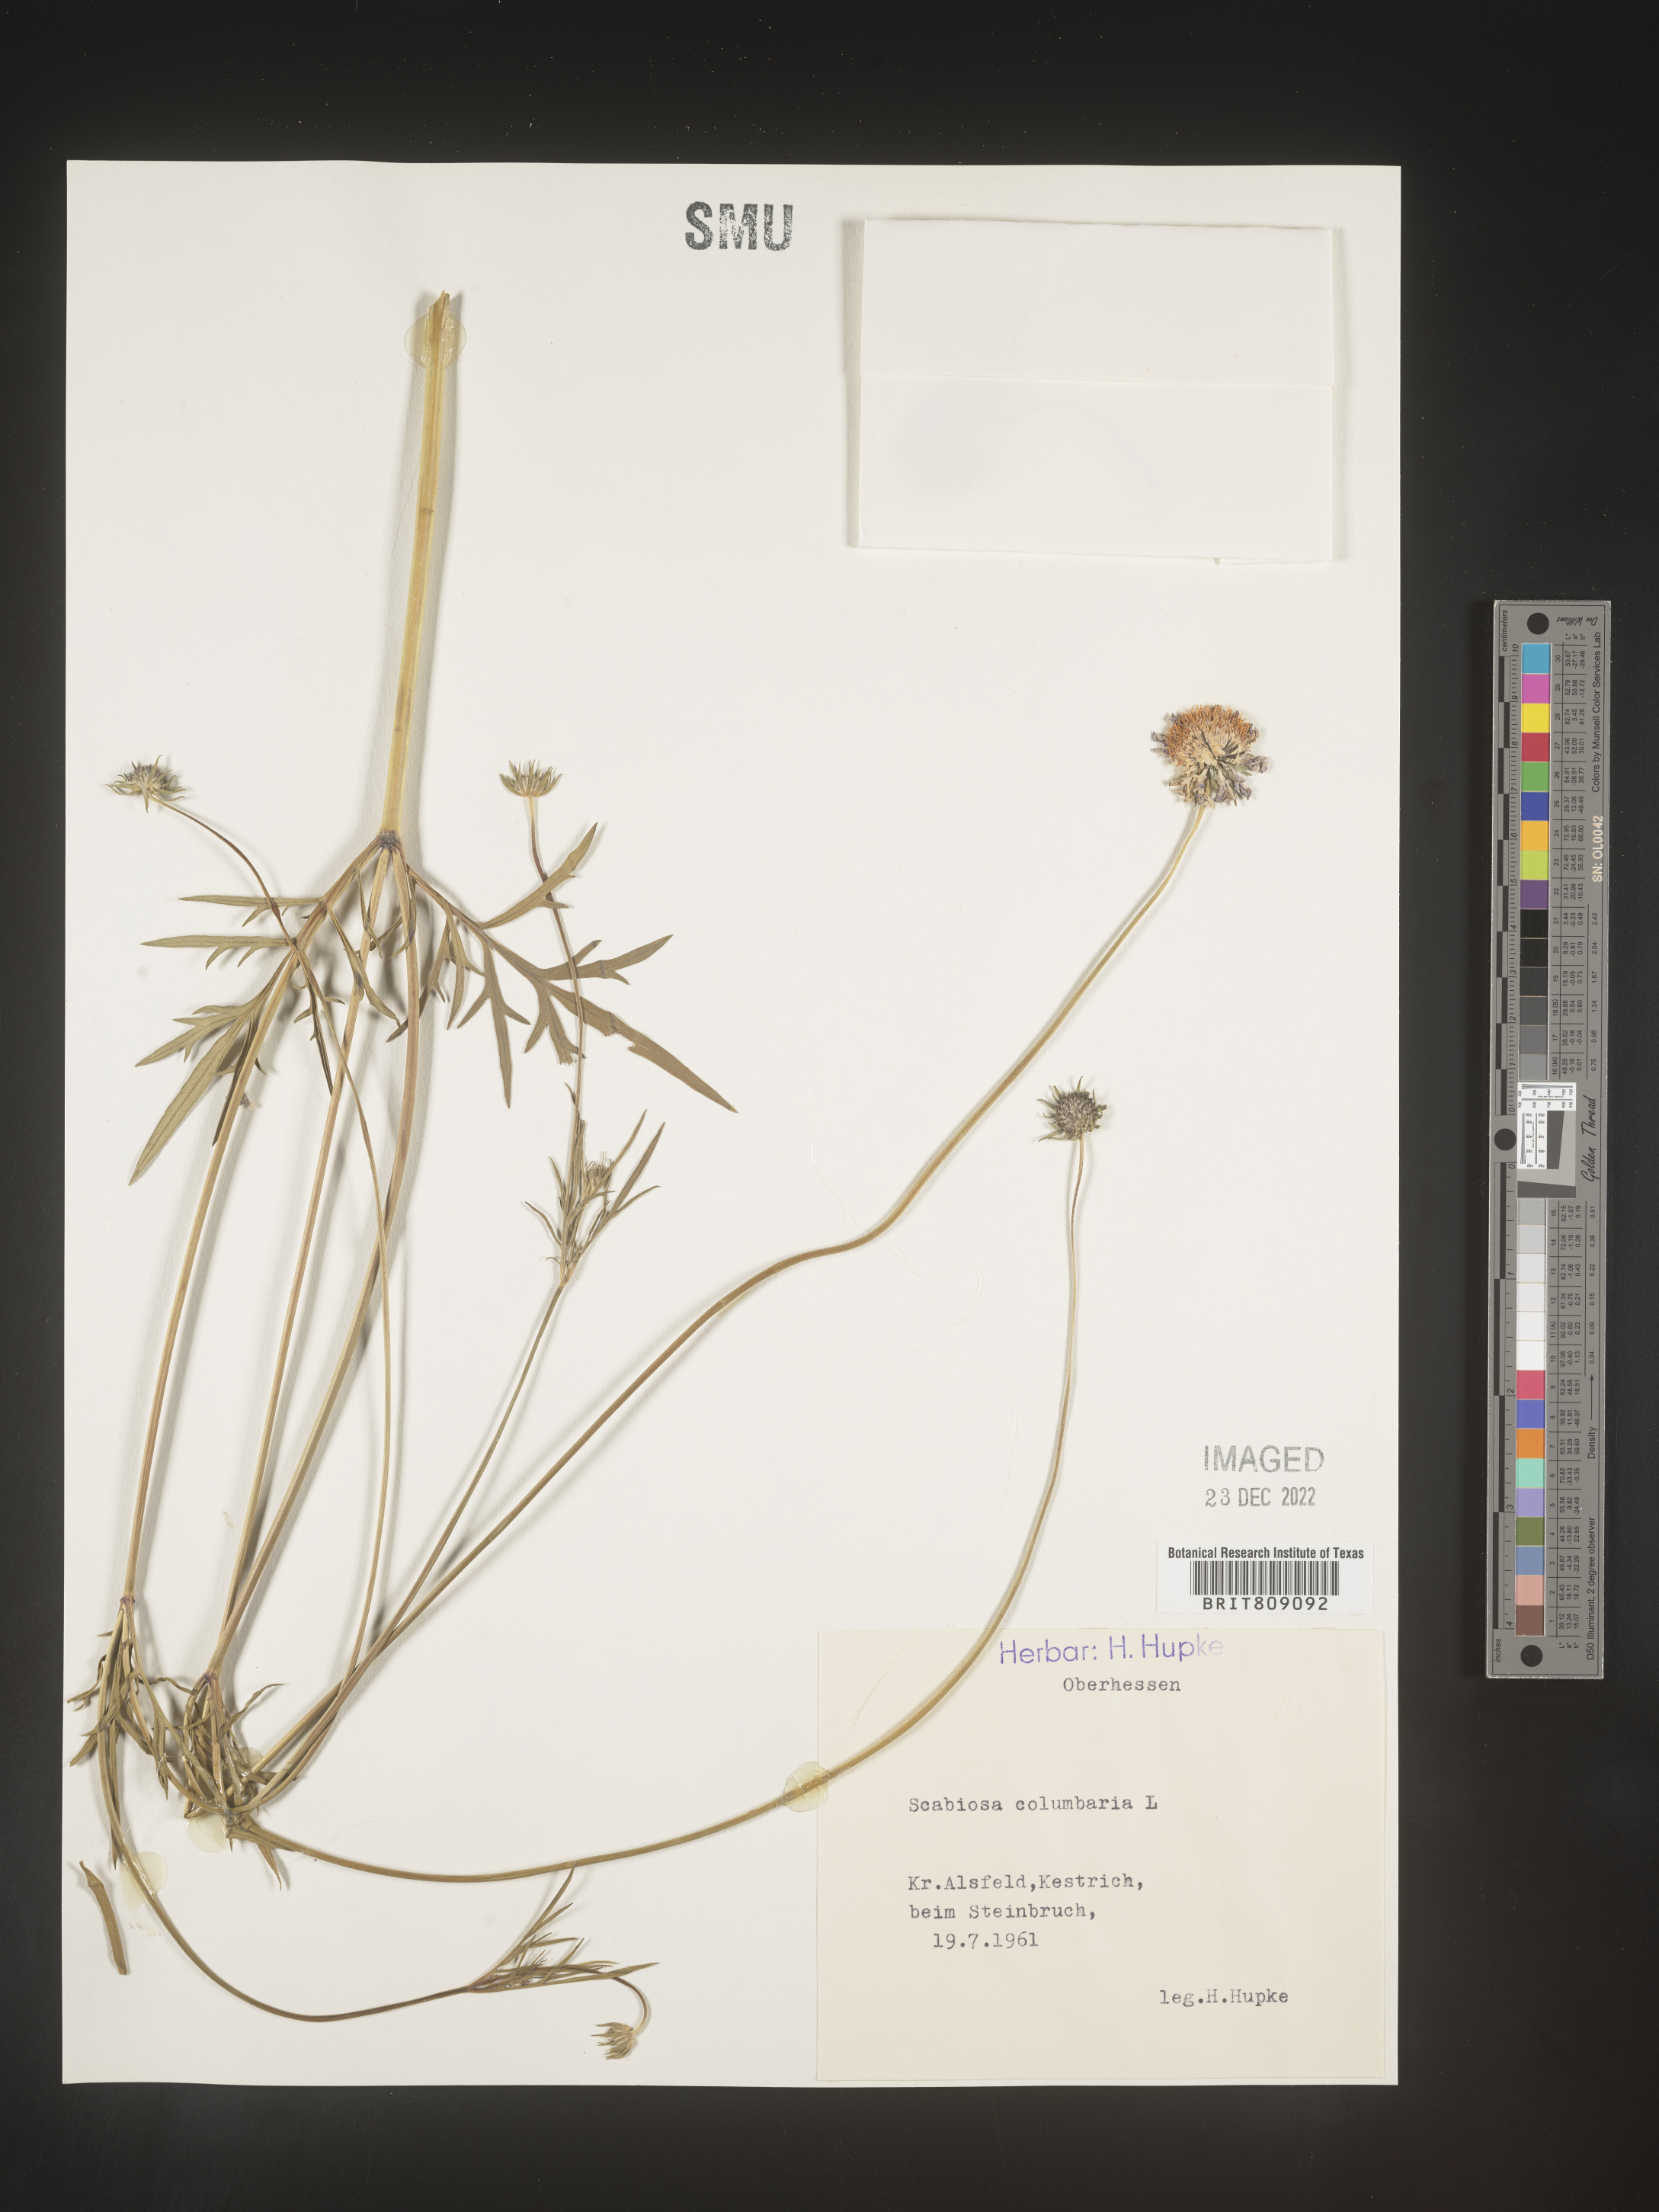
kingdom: Plantae
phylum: Tracheophyta
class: Magnoliopsida
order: Dipsacales
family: Caprifoliaceae
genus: Scabiosa
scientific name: Scabiosa
